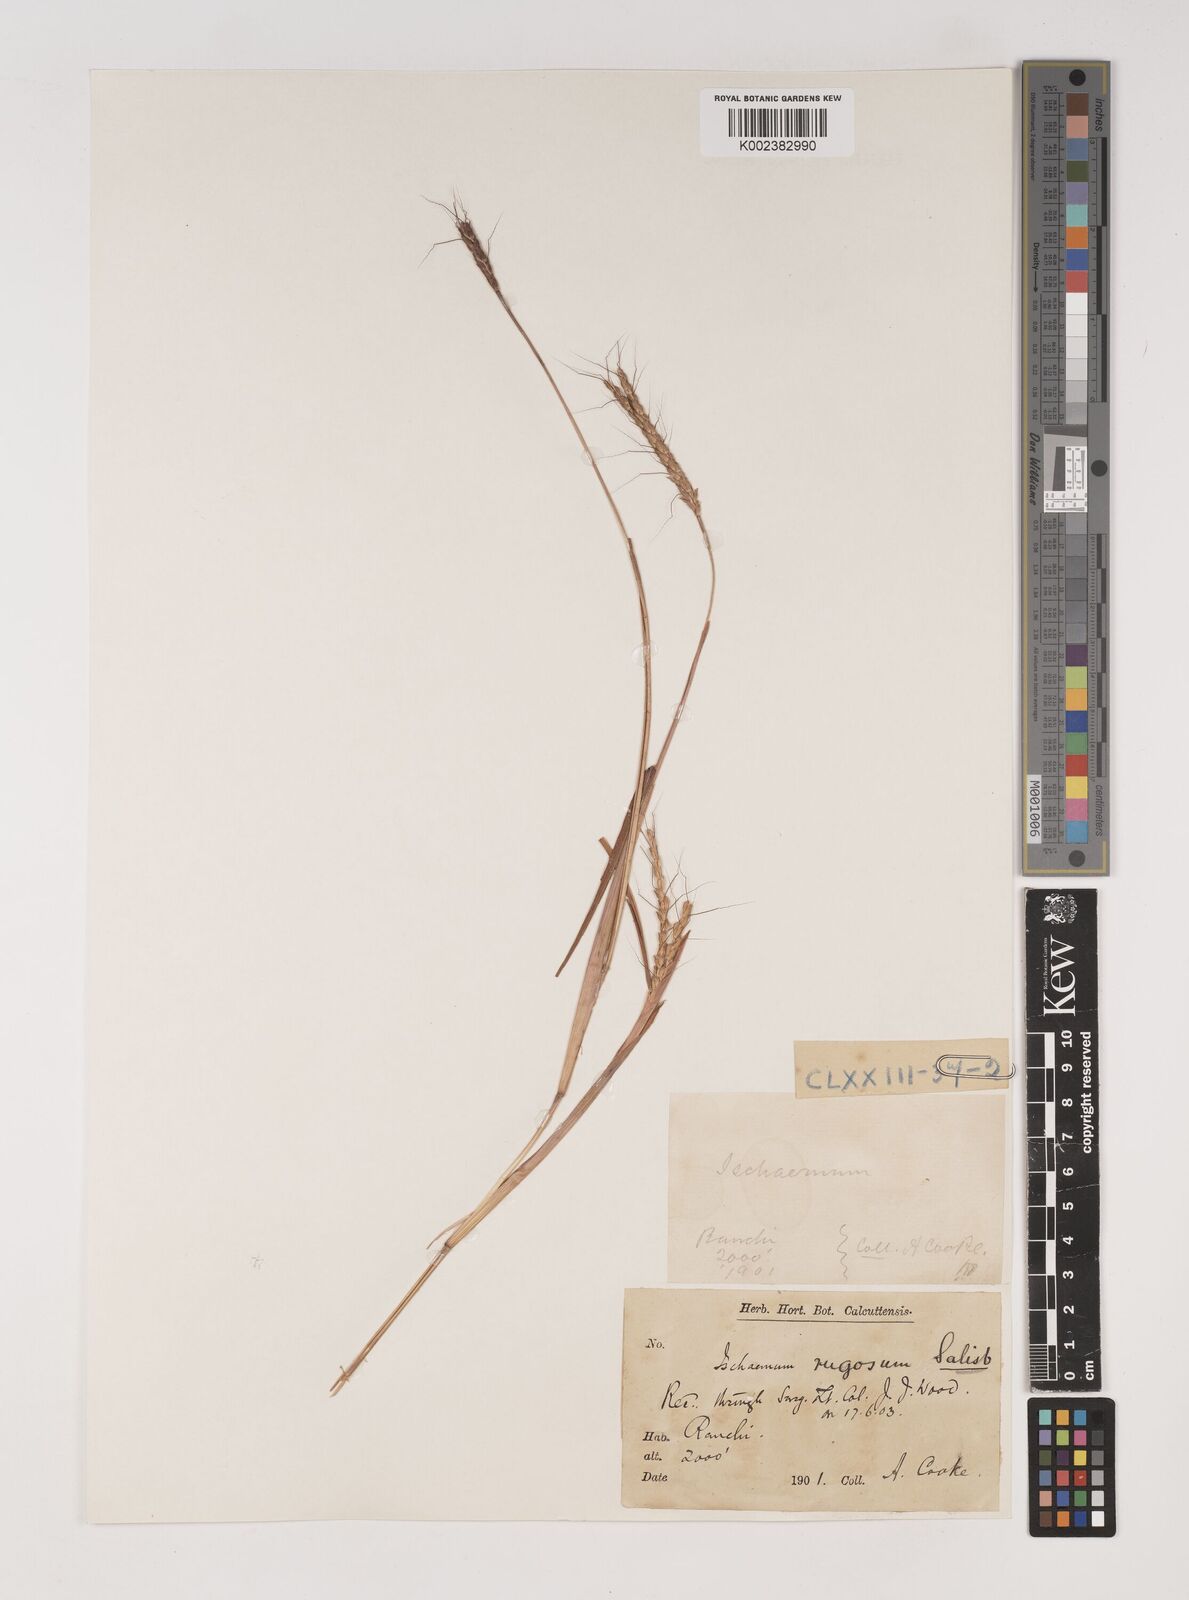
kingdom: Plantae
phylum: Tracheophyta
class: Liliopsida
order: Poales
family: Poaceae
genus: Ischaemum
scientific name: Ischaemum rugosum
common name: Saramatta grass
